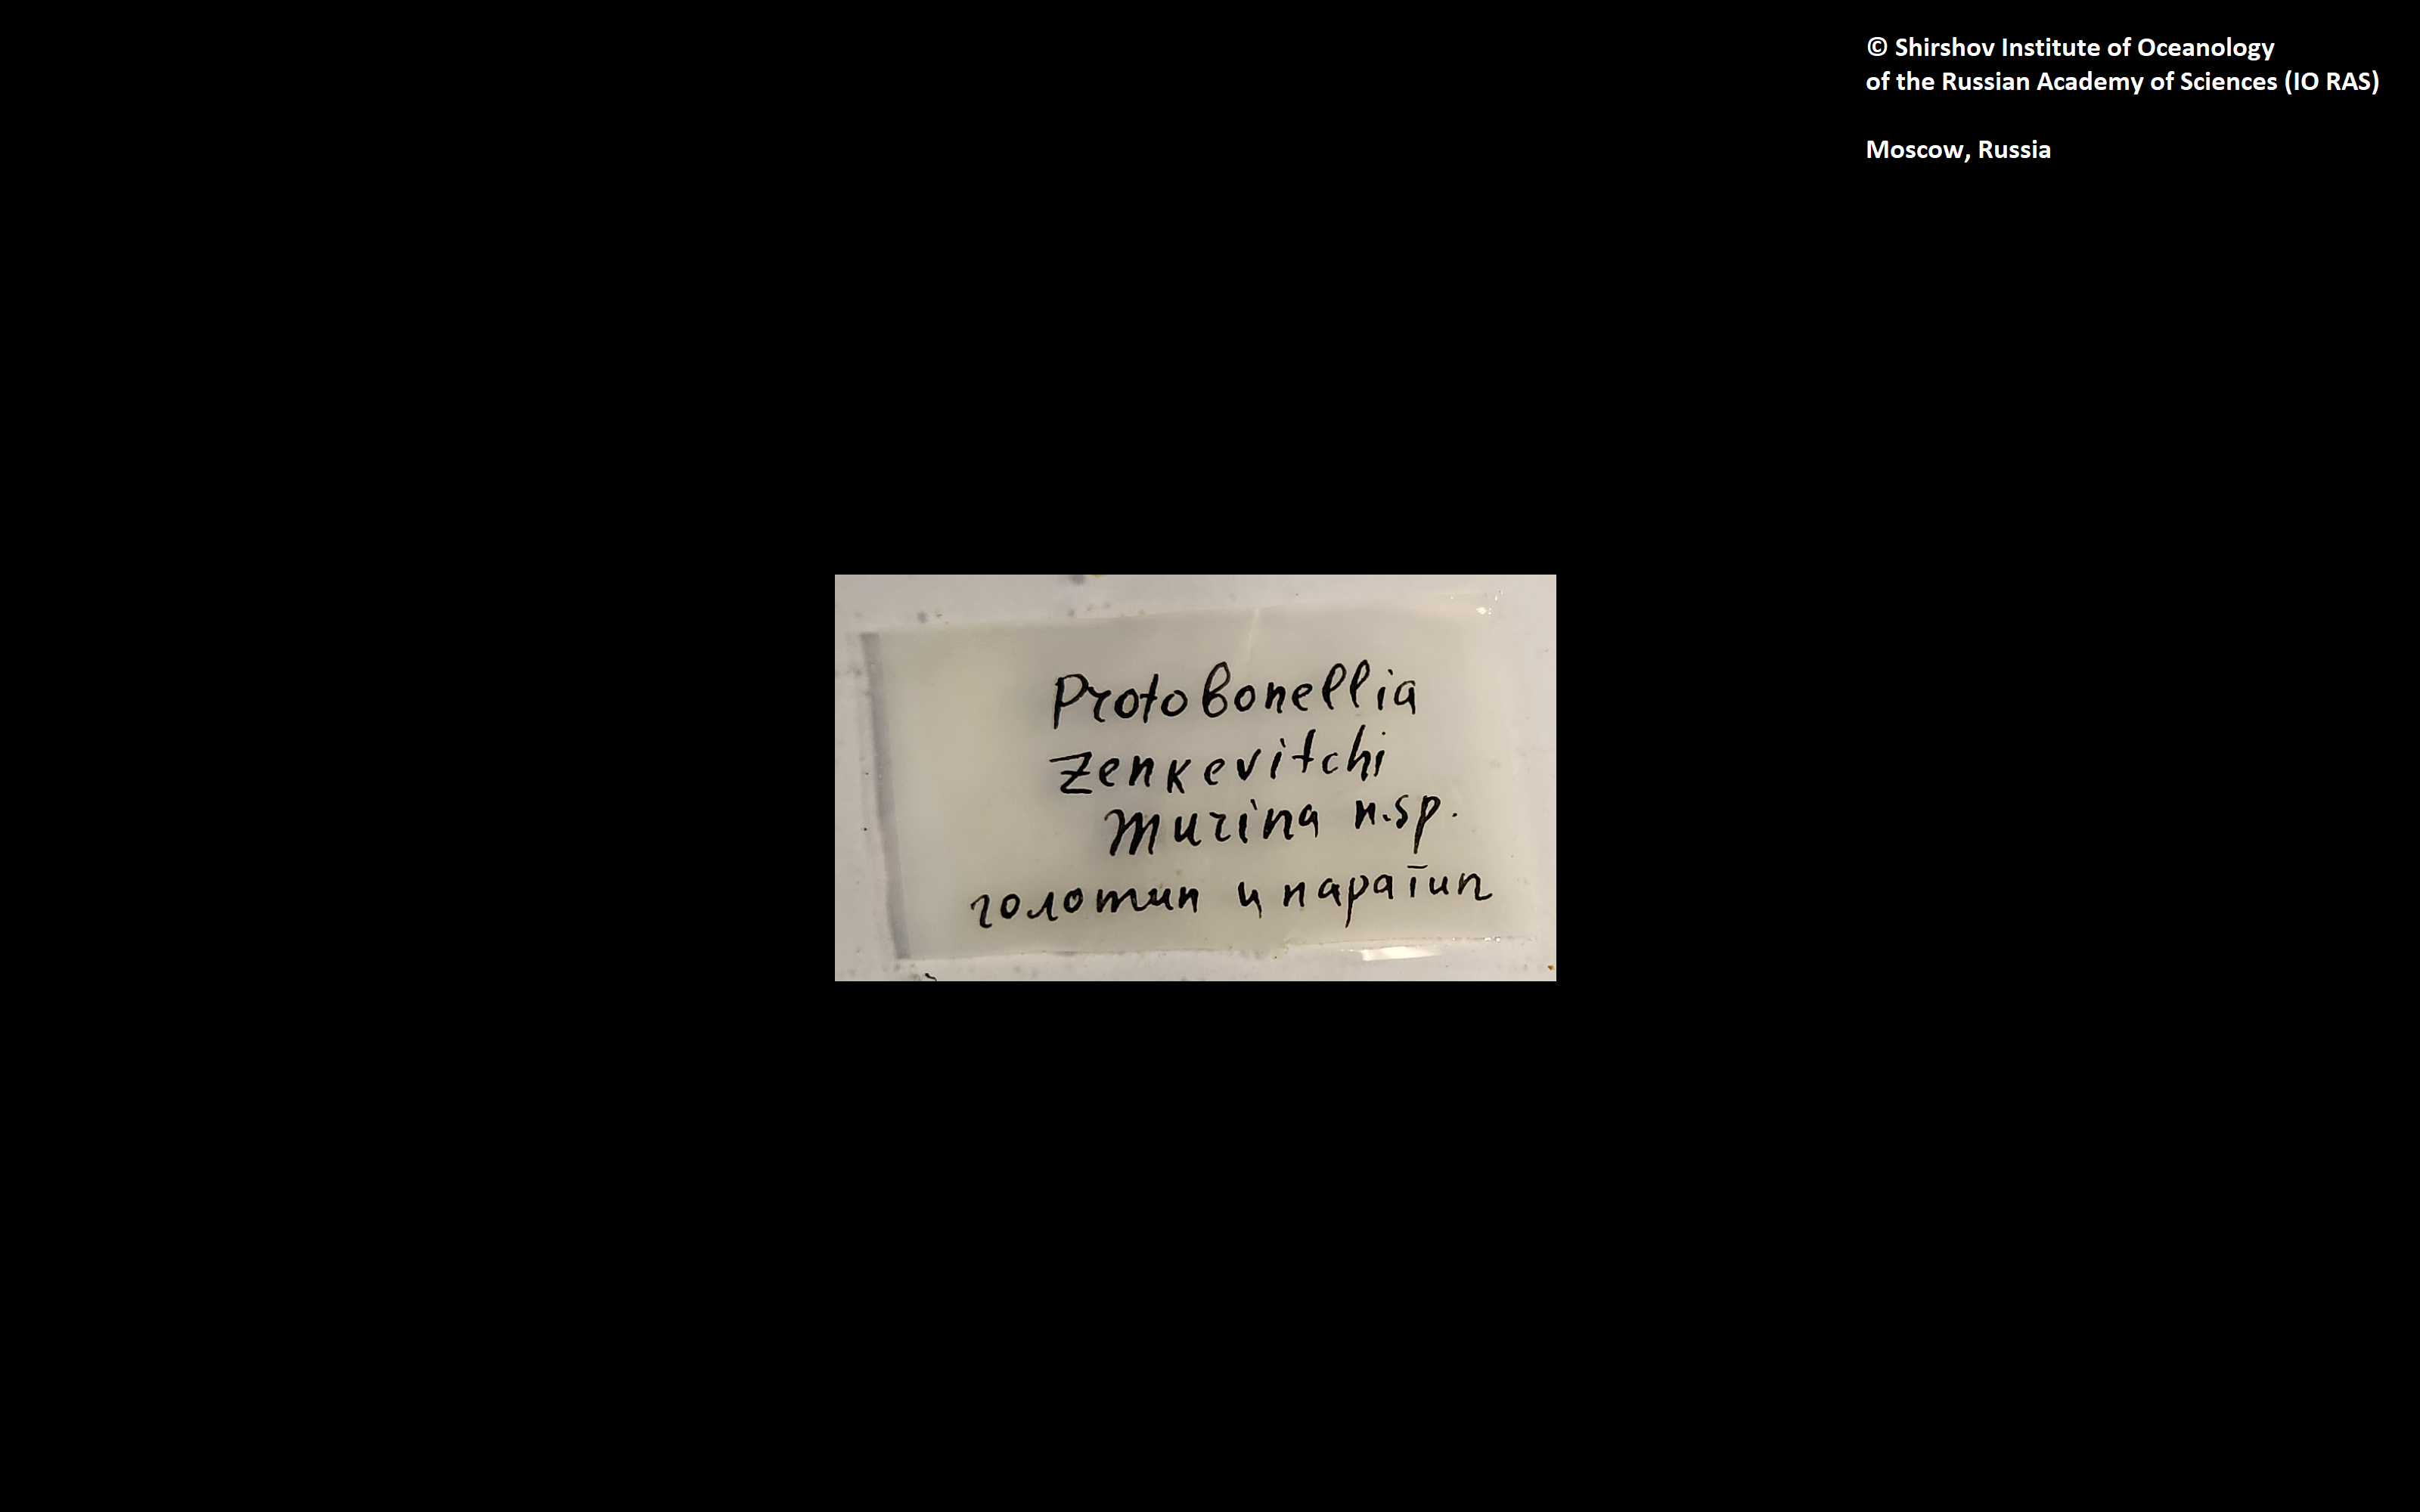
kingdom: Animalia
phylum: Annelida
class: Polychaeta
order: Echiuroidea
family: Bonelliidae
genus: Protobonellia
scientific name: Protobonellia zenkevitchi
